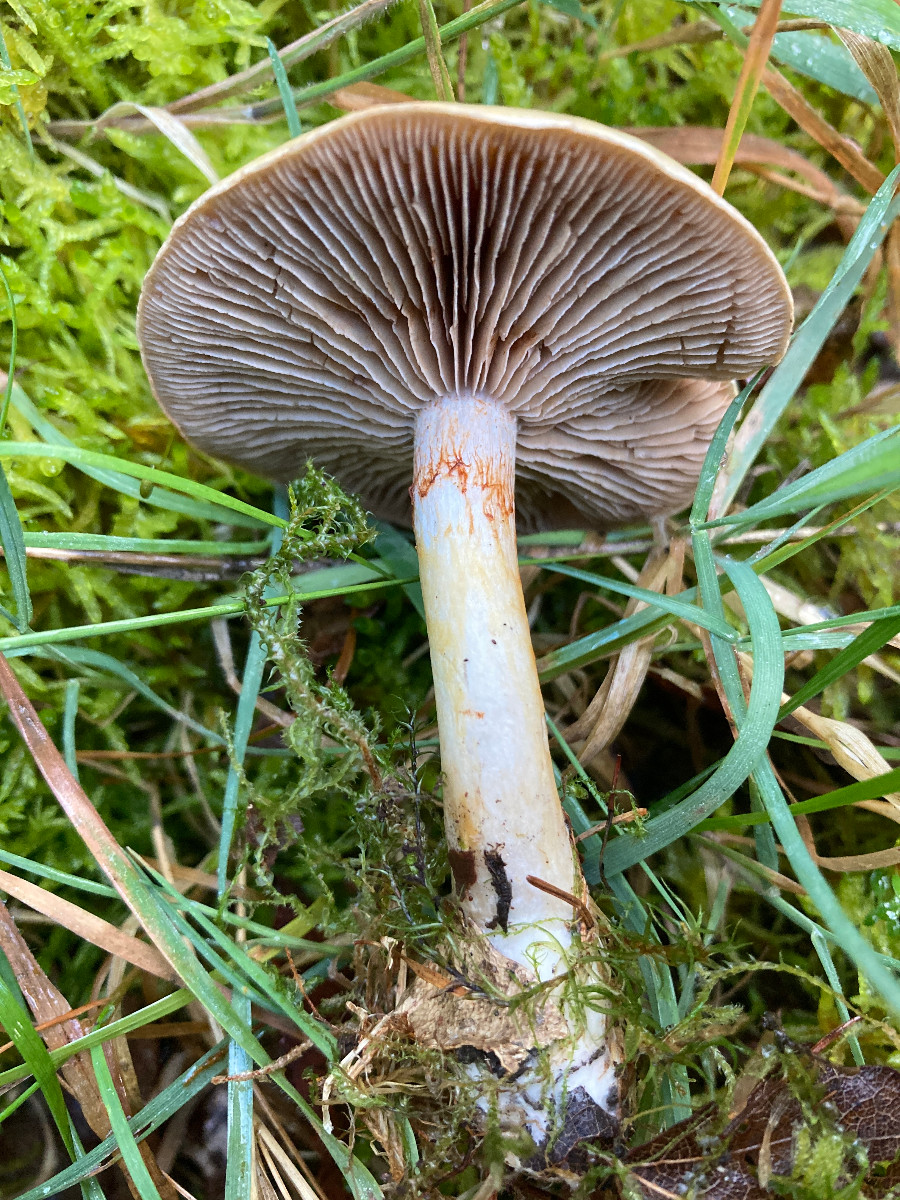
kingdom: Fungi
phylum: Basidiomycota
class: Agaricomycetes
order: Agaricales
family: Cortinariaceae
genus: Cortinarius
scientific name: Cortinarius delibutus
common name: gul slørhat
